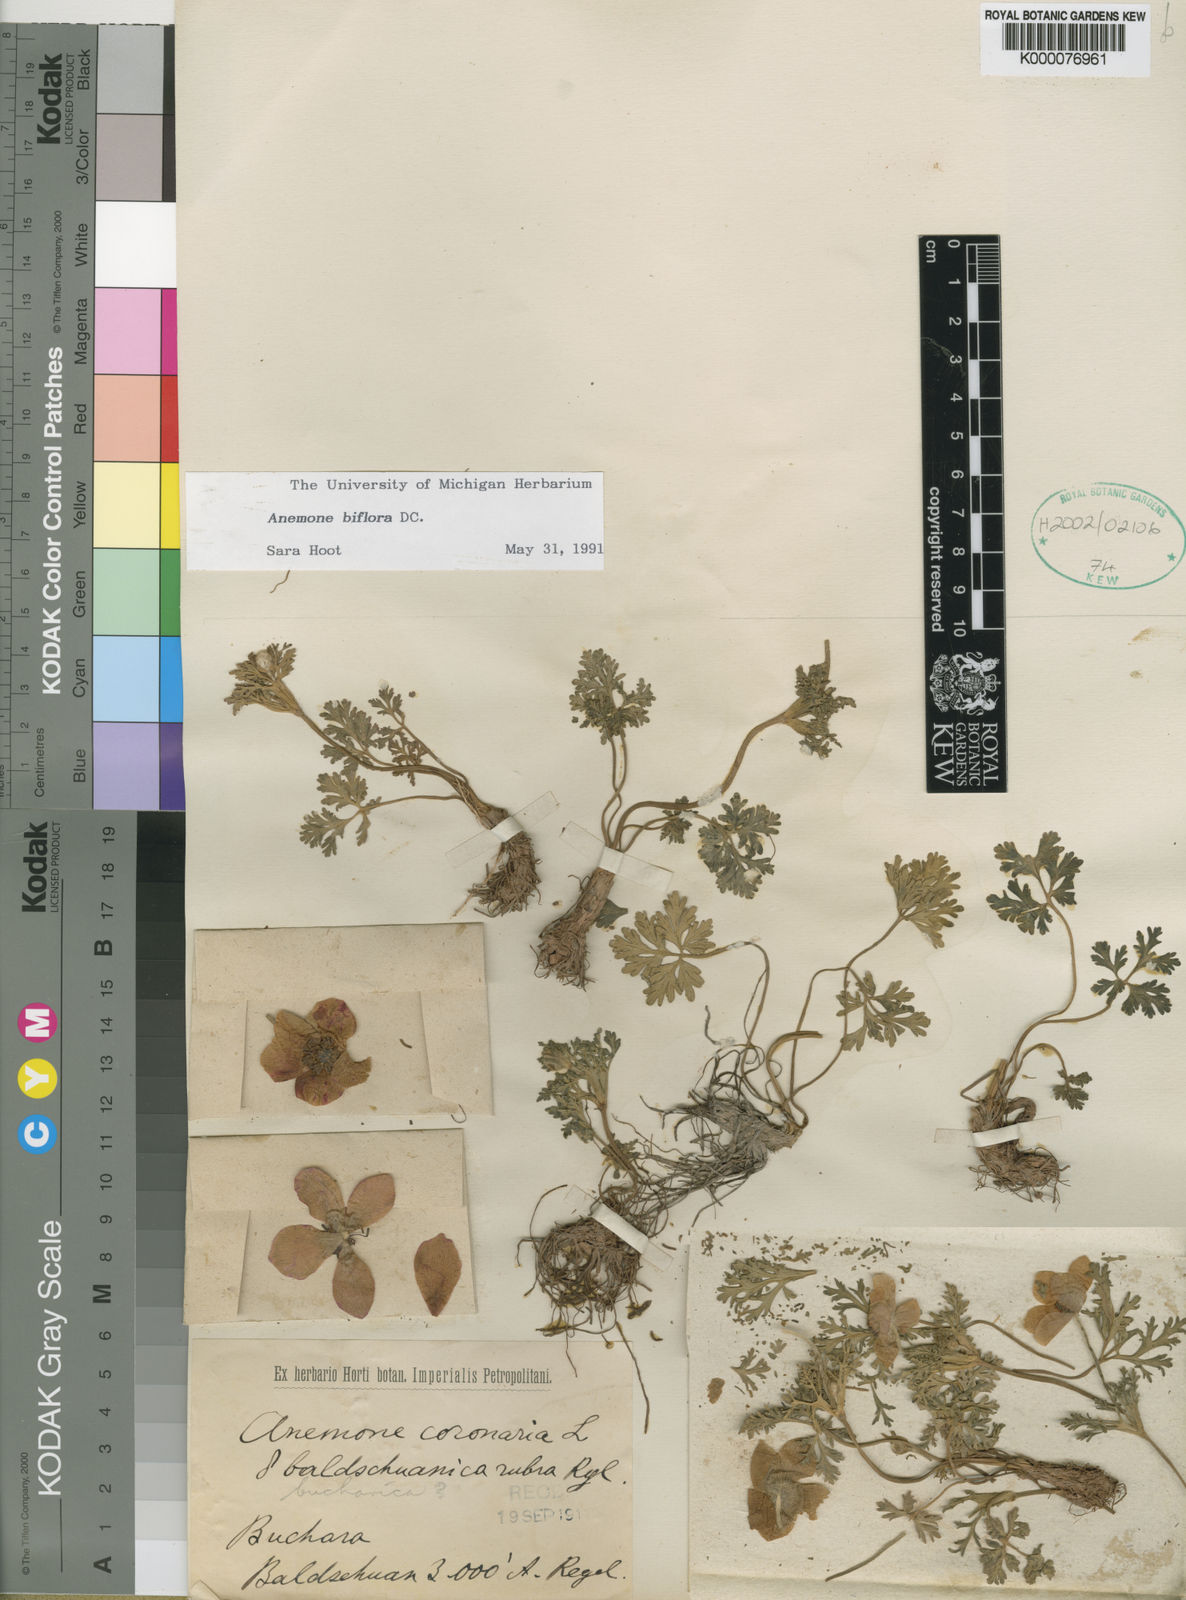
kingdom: Plantae
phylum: Tracheophyta
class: Magnoliopsida
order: Ranunculales
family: Ranunculaceae
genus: Anemone
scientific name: Anemone biflora
